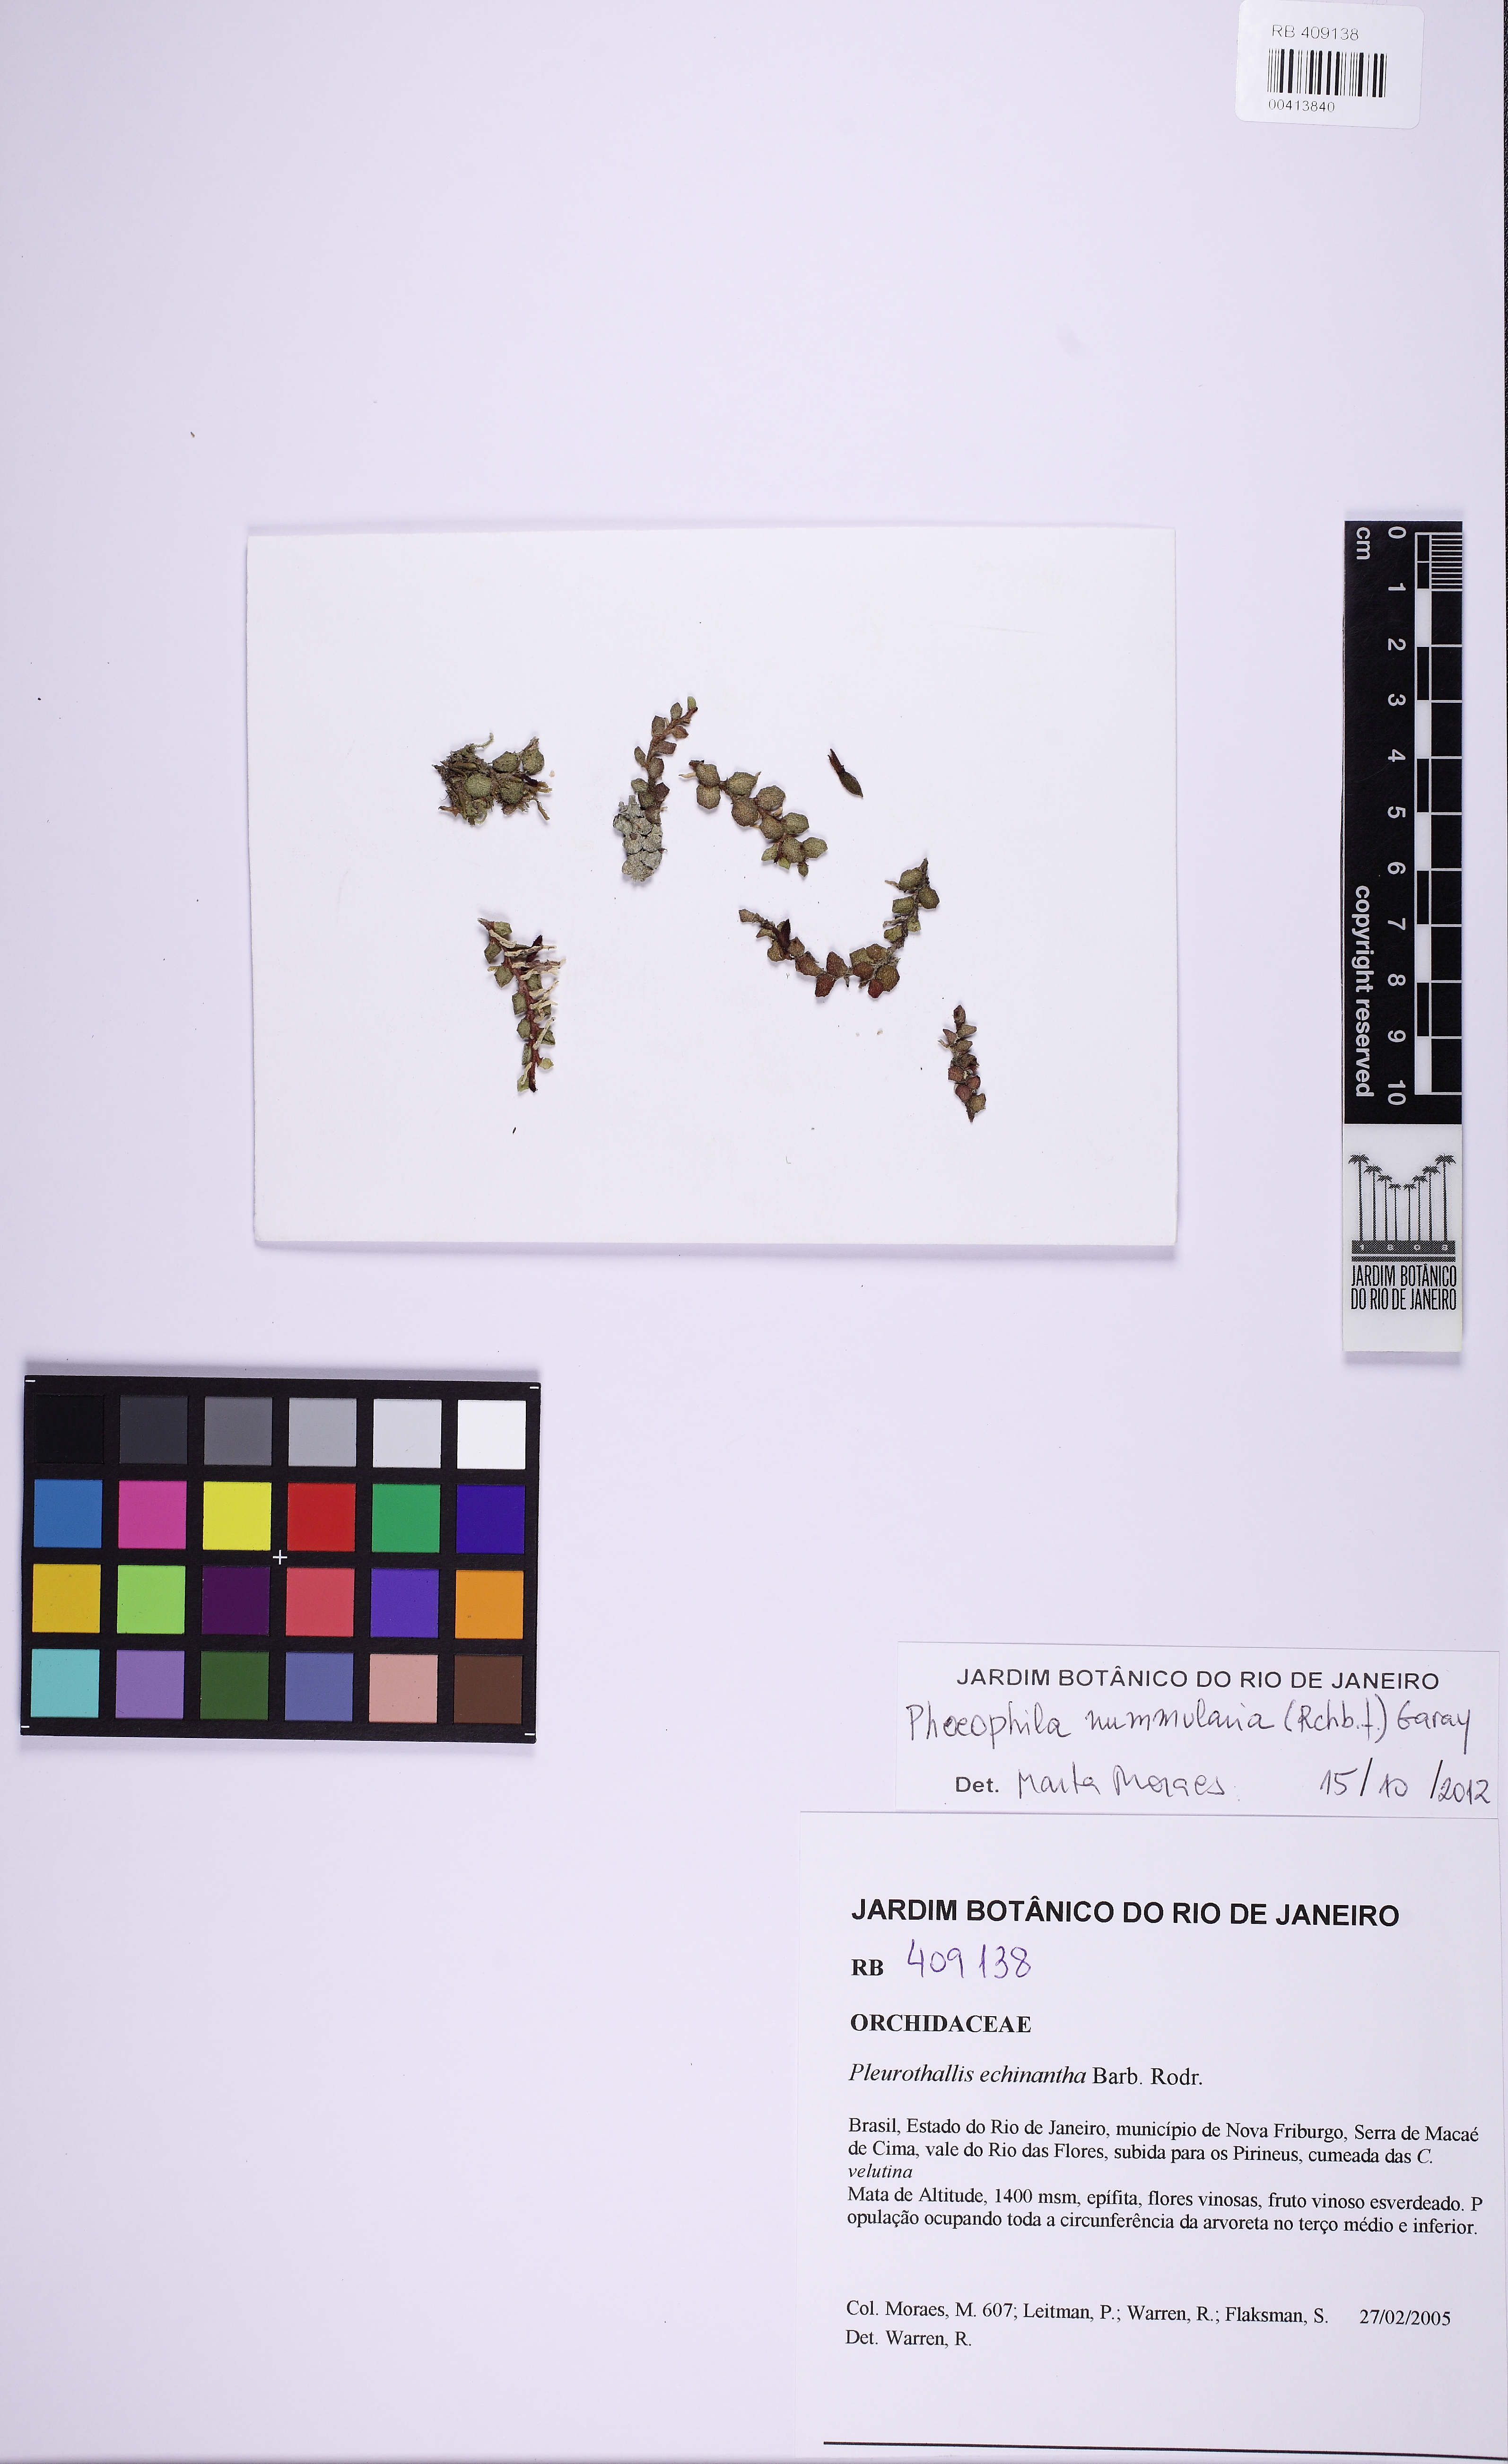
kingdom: Plantae
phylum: Tracheophyta
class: Liliopsida
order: Asparagales
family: Orchidaceae
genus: Phloeophila
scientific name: Phloeophila nummularia
